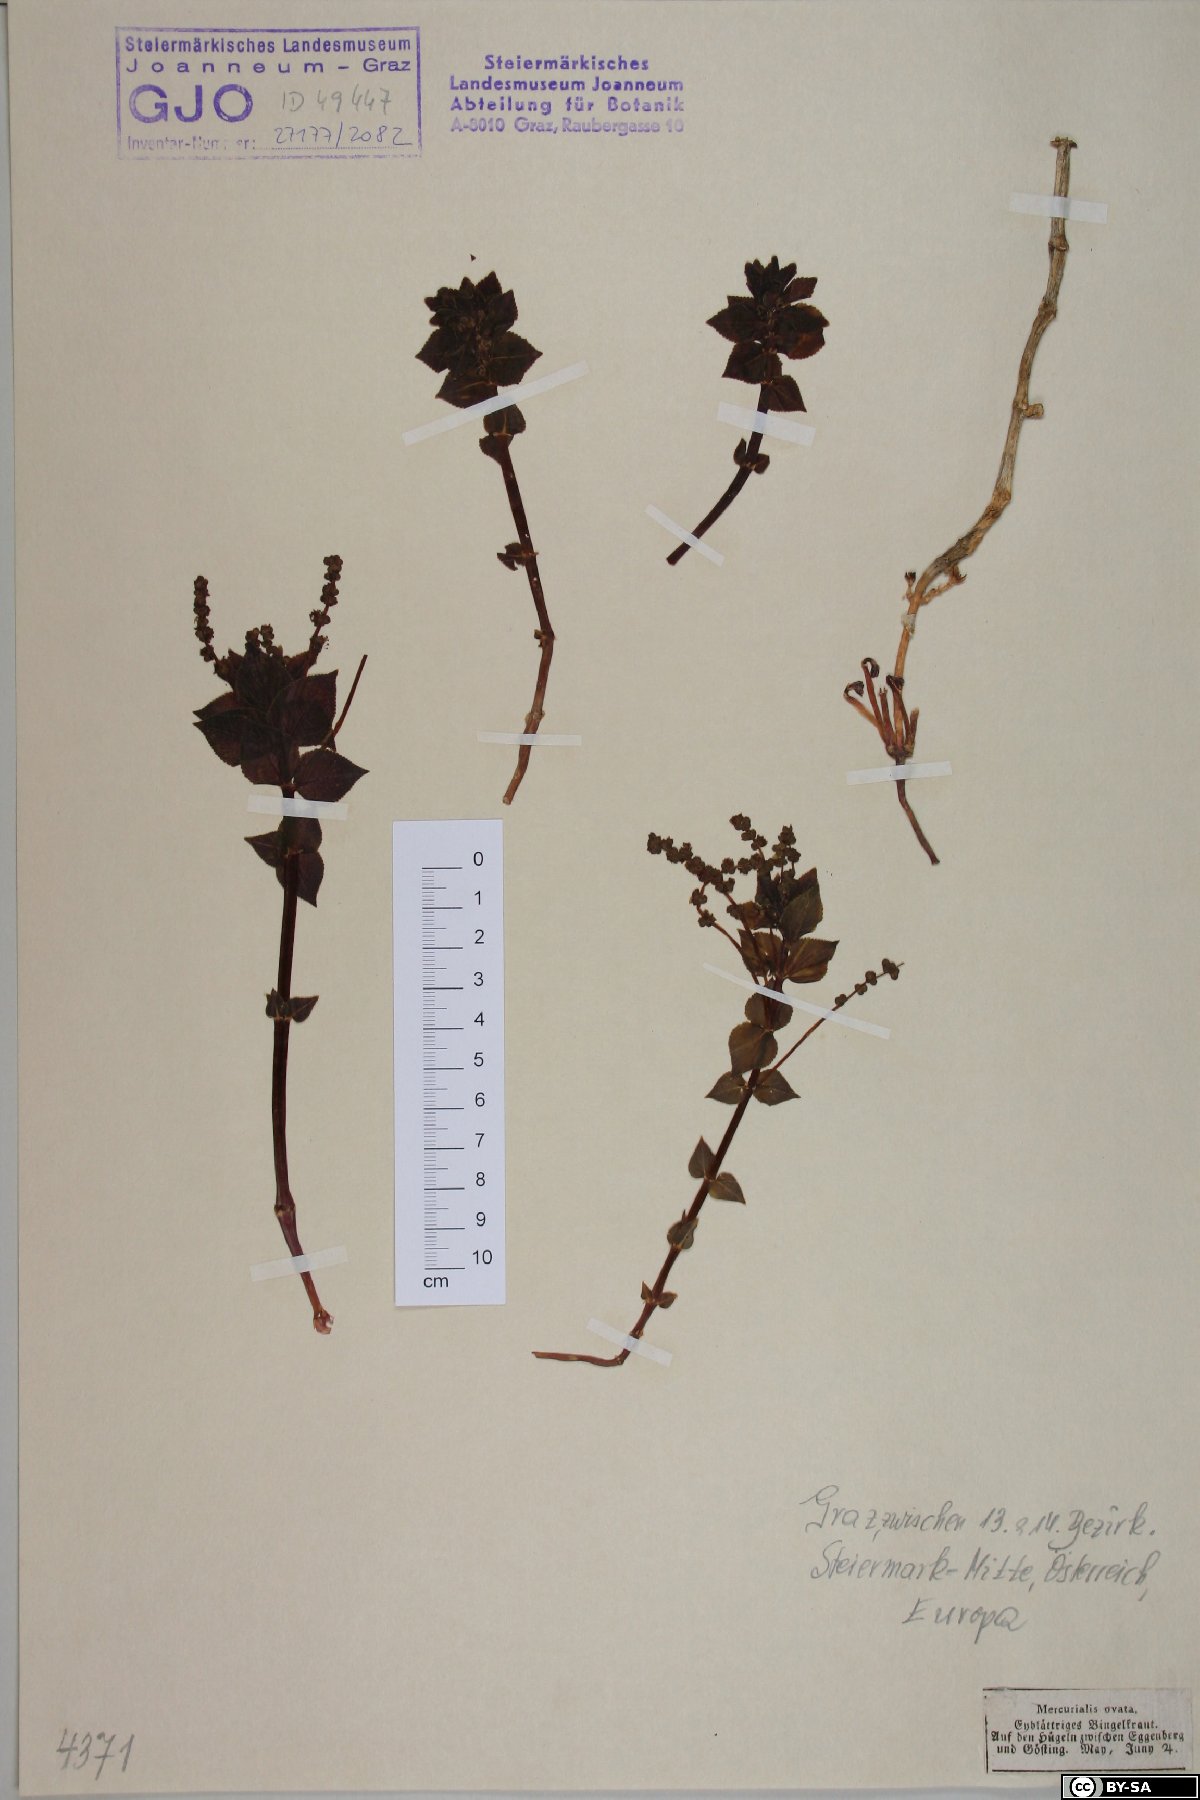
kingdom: Plantae
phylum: Tracheophyta
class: Magnoliopsida
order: Malpighiales
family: Euphorbiaceae
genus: Mercurialis
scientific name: Mercurialis ovata
